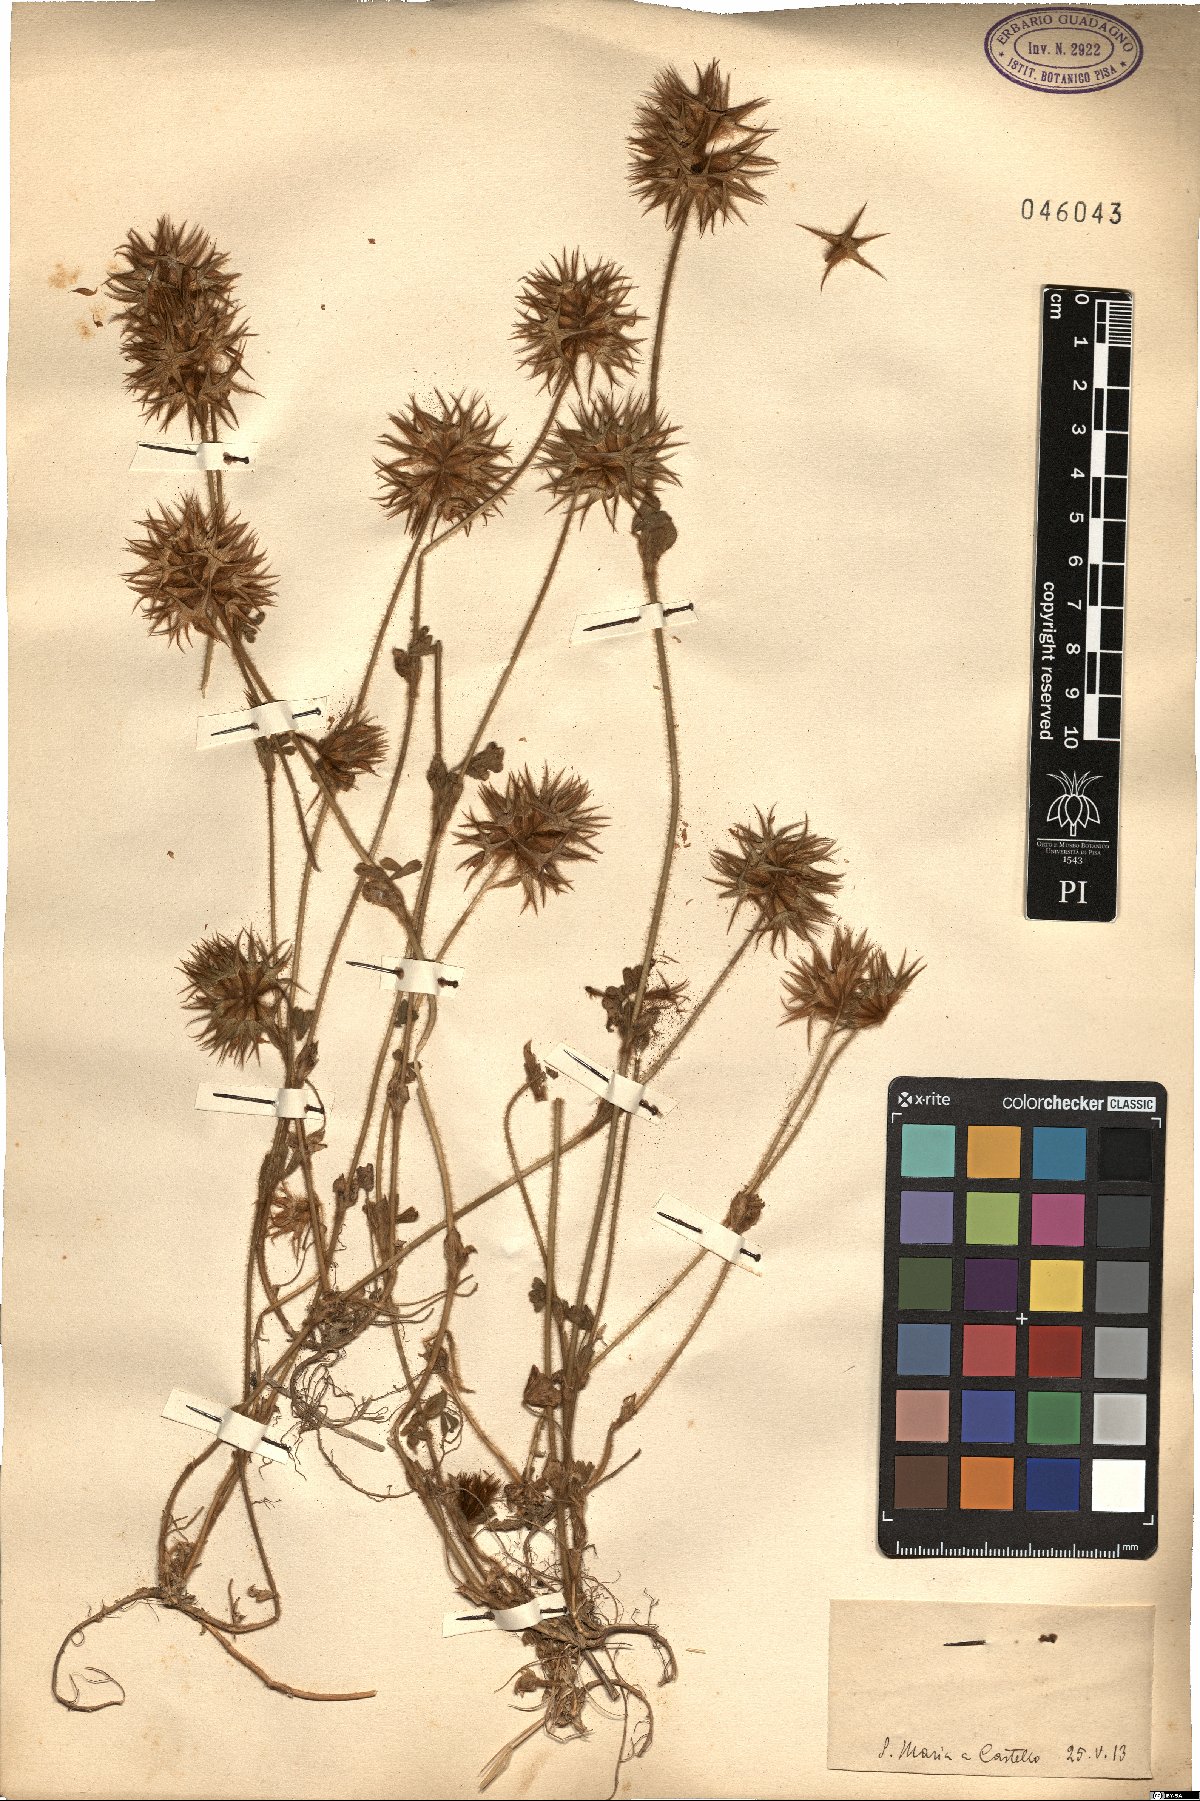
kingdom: Plantae
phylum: Tracheophyta
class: Magnoliopsida
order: Fabales
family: Fabaceae
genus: Trifolium
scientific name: Trifolium
